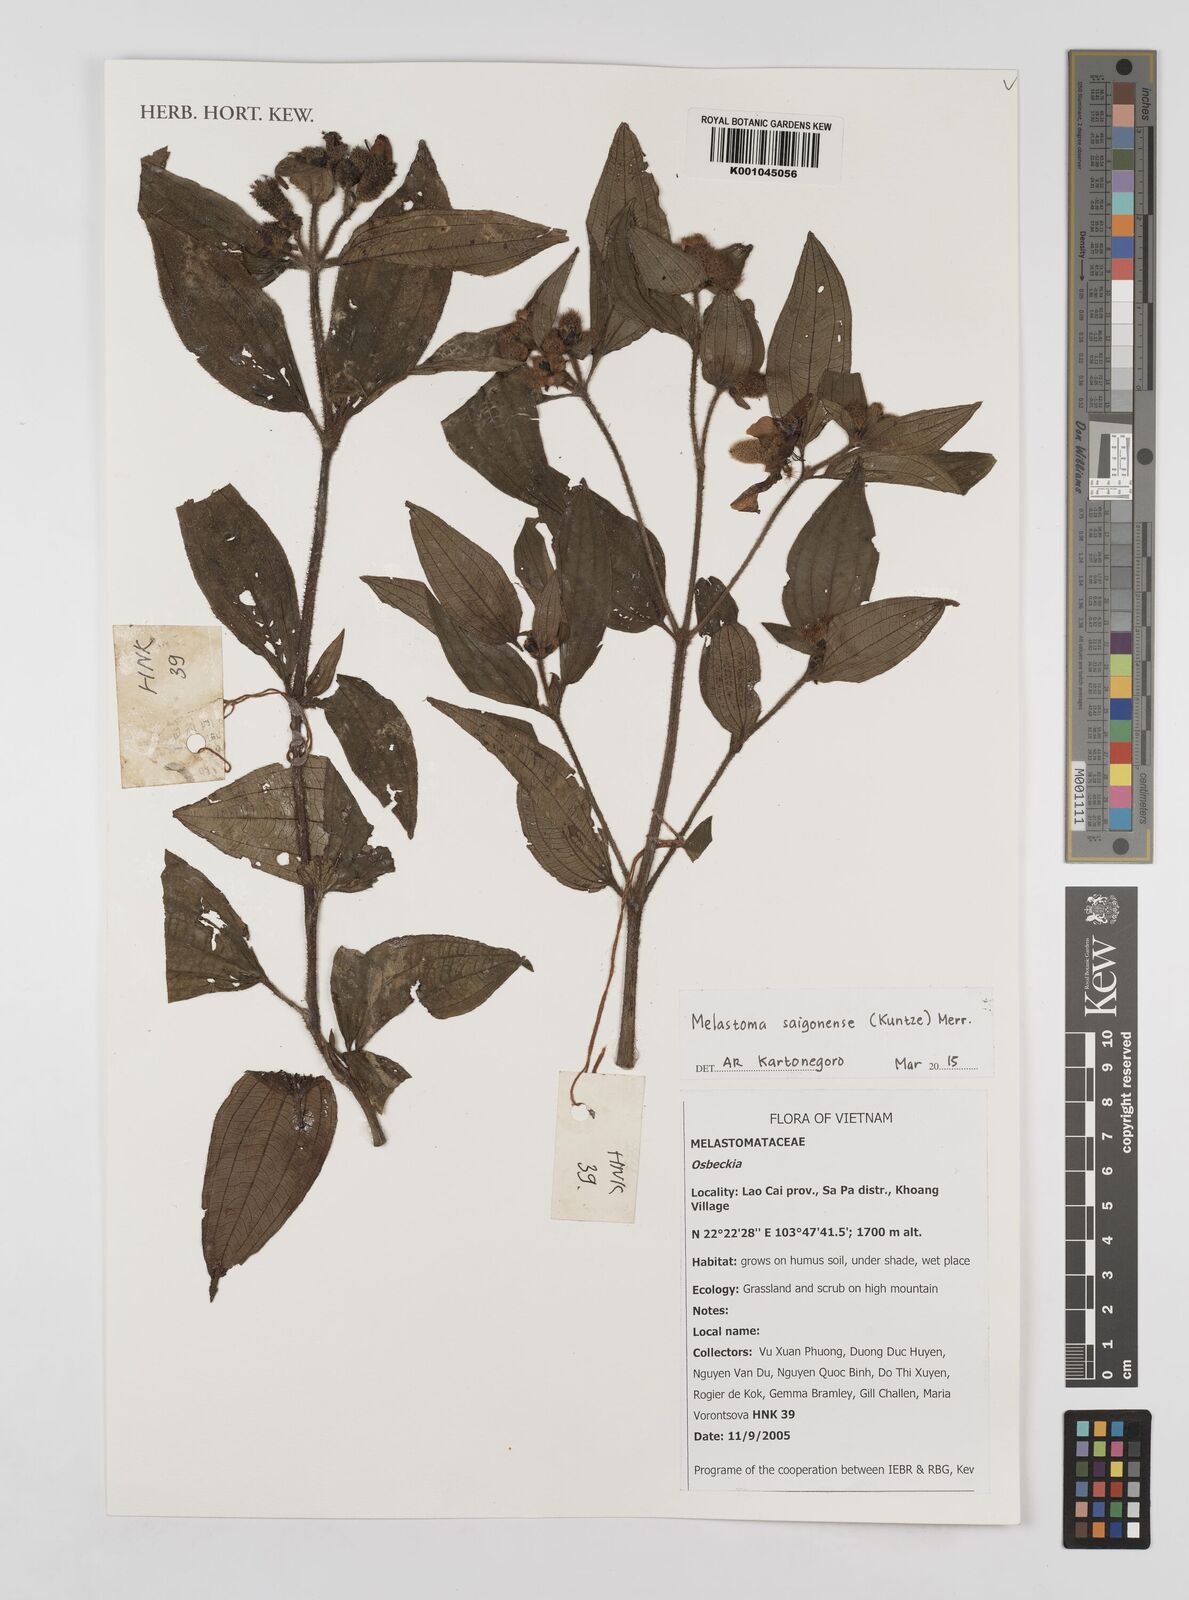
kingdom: Plantae
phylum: Tracheophyta
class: Magnoliopsida
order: Myrtales
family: Melastomataceae
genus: Melastoma
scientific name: Melastoma saigonense
